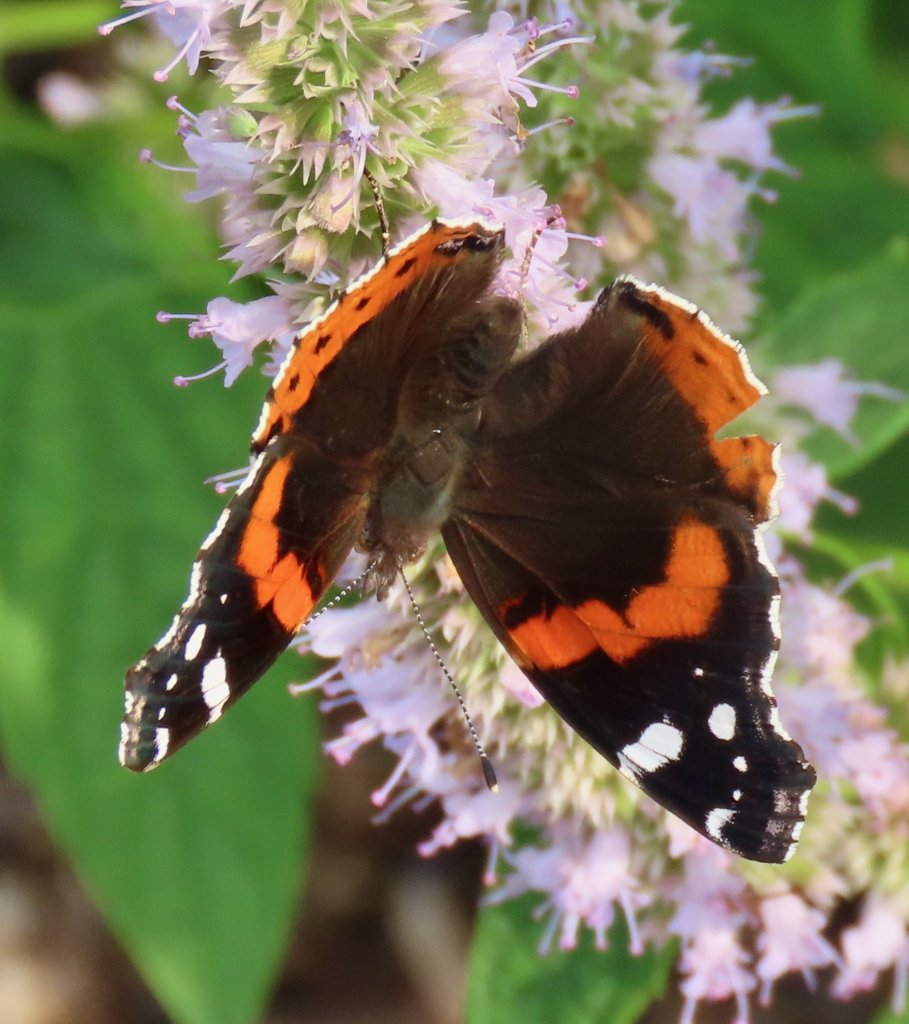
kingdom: Animalia
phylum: Arthropoda
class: Insecta
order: Lepidoptera
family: Nymphalidae
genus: Vanessa
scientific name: Vanessa atalanta
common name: Red Admiral
